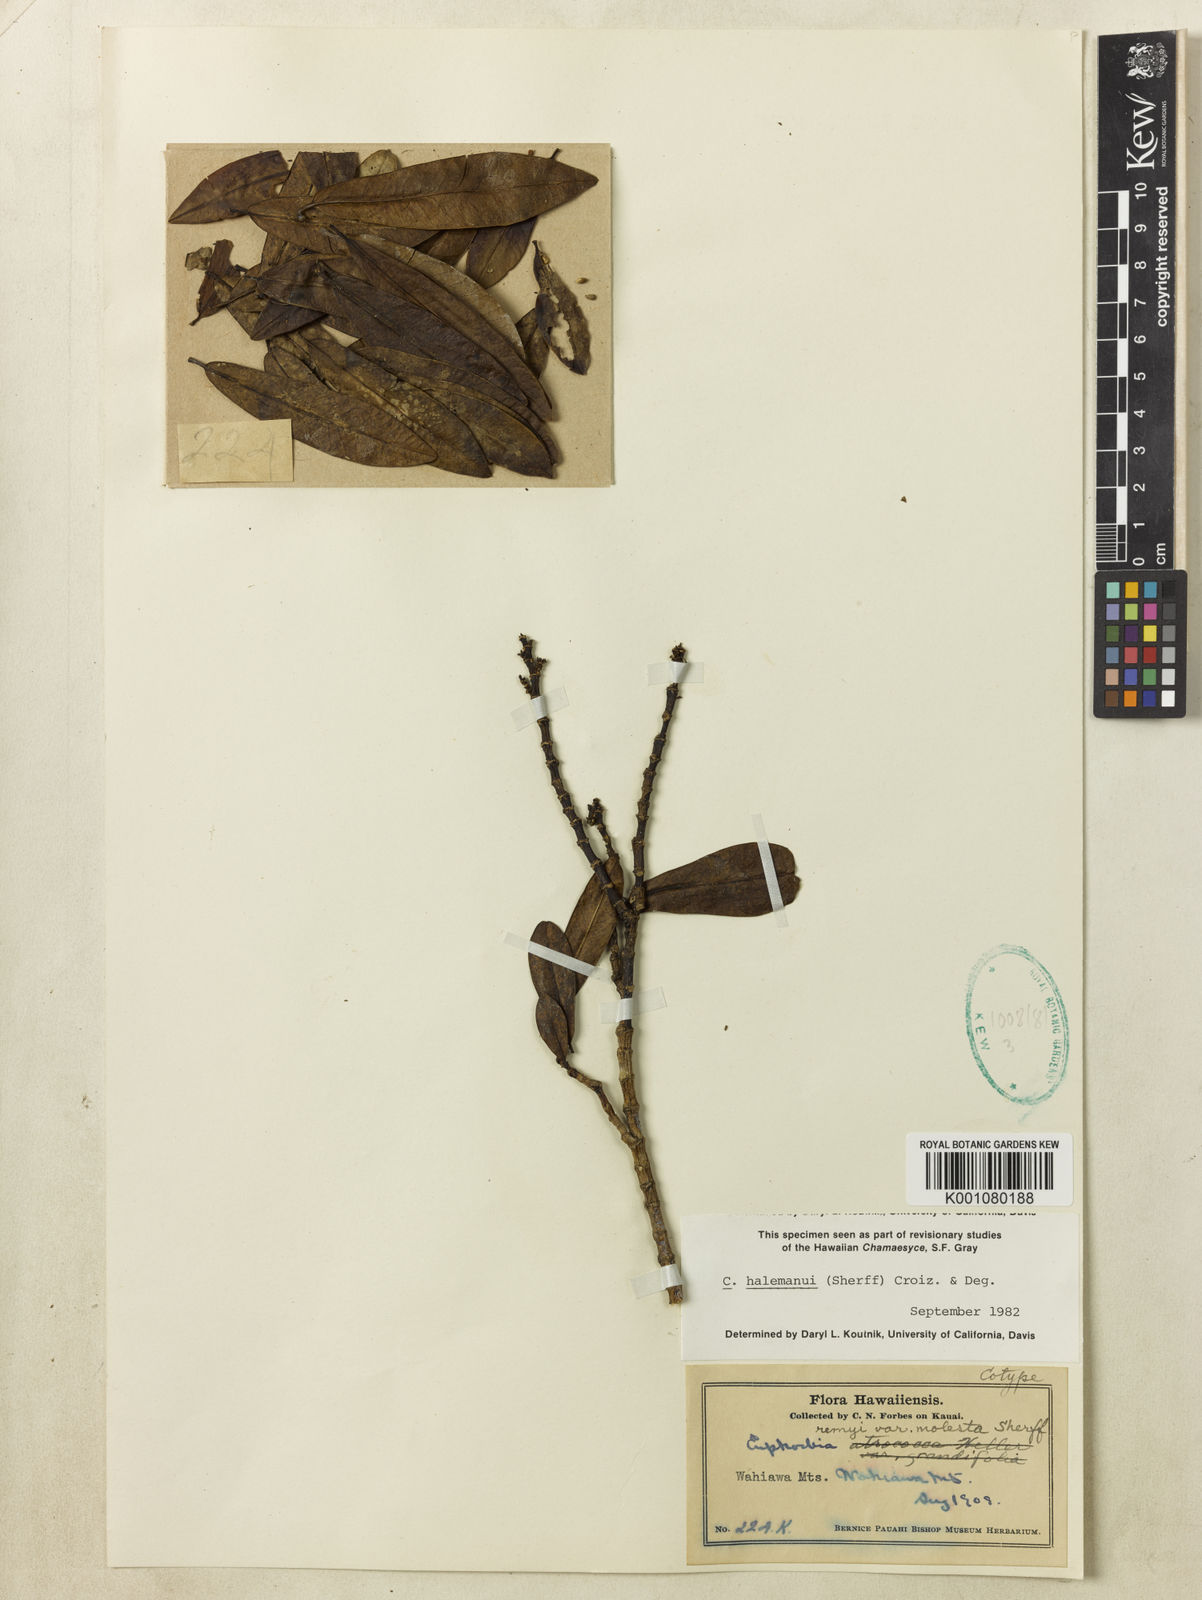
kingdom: Plantae
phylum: Tracheophyta
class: Magnoliopsida
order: Malpighiales
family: Euphorbiaceae
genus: Euphorbia
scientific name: Euphorbia halemanui
